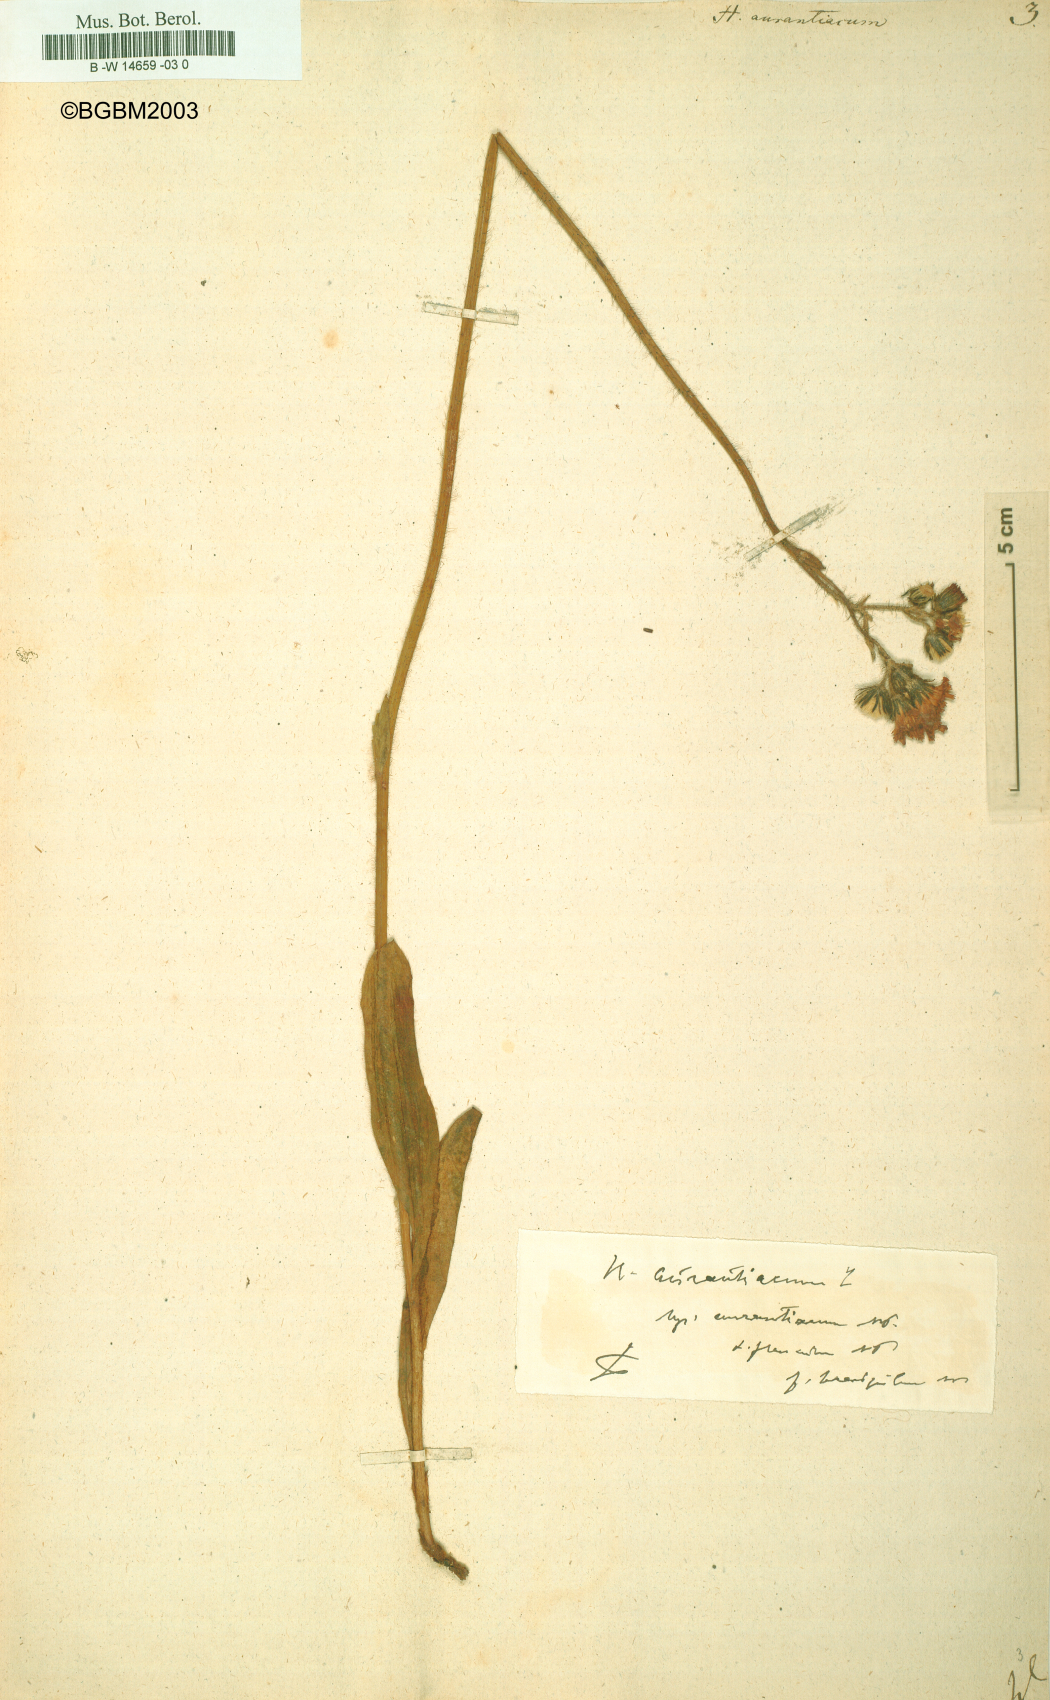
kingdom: Plantae
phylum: Tracheophyta
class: Magnoliopsida
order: Asterales
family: Asteraceae
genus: Pilosella
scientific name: Pilosella aurantiaca
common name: Fox-and-cubs
